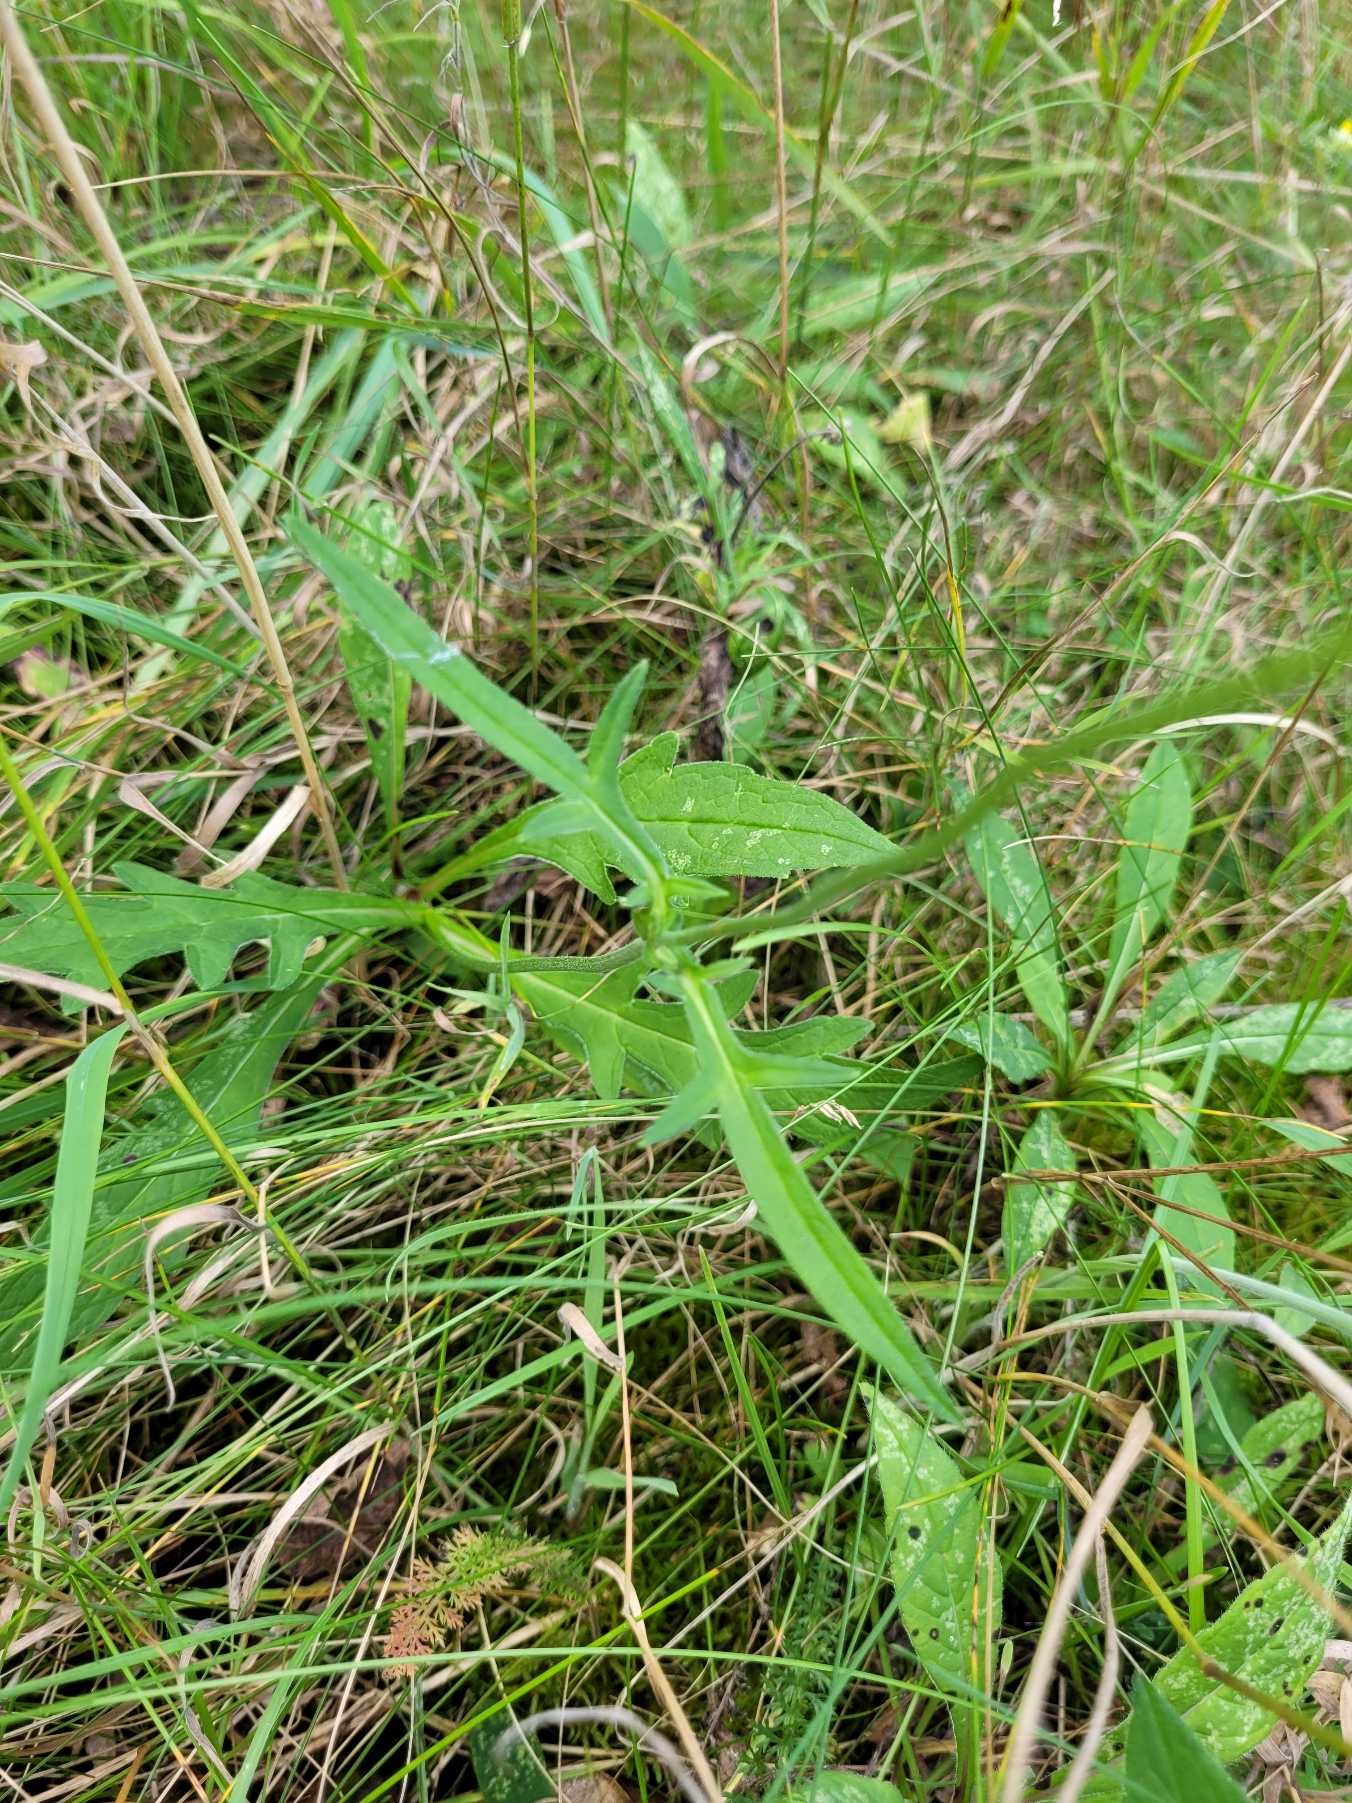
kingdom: Plantae
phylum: Tracheophyta
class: Magnoliopsida
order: Dipsacales
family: Caprifoliaceae
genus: Knautia
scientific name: Knautia arvensis
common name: Blåhat
